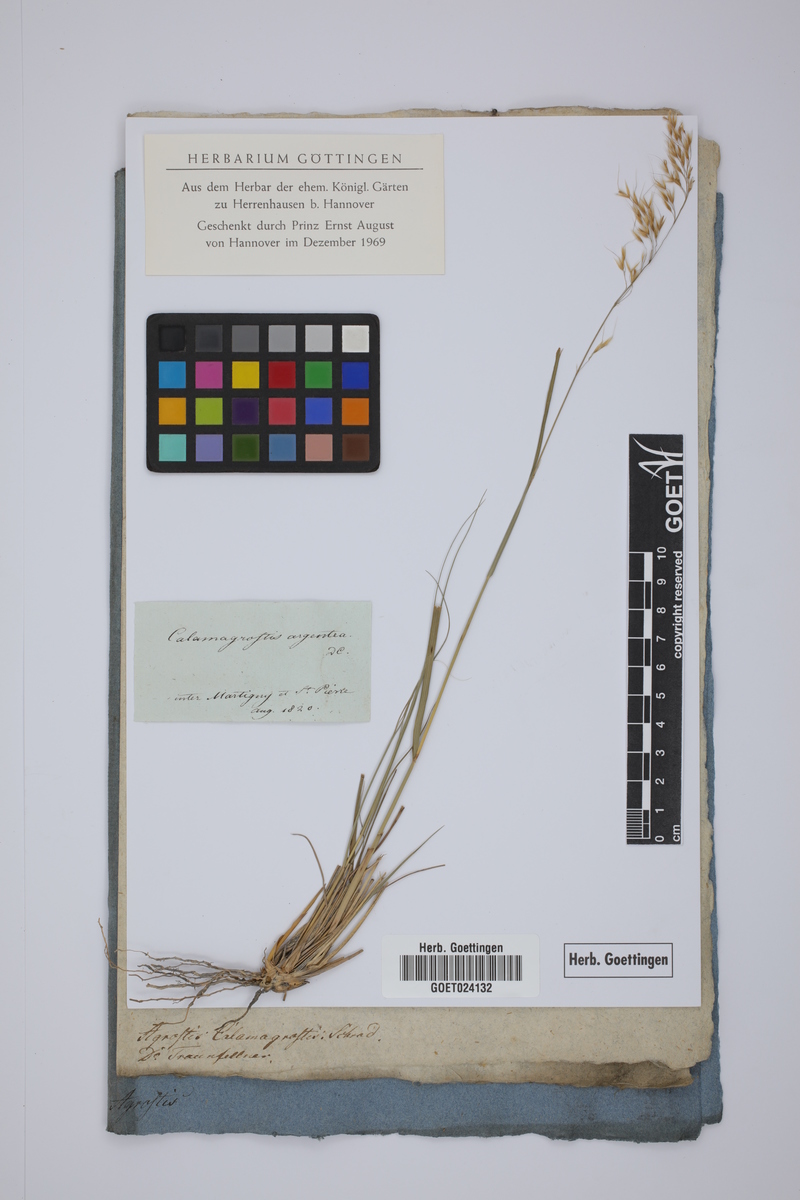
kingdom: Plantae
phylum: Tracheophyta
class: Liliopsida
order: Poales
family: Poaceae
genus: Achnatherum
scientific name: Achnatherum calamagrostis
